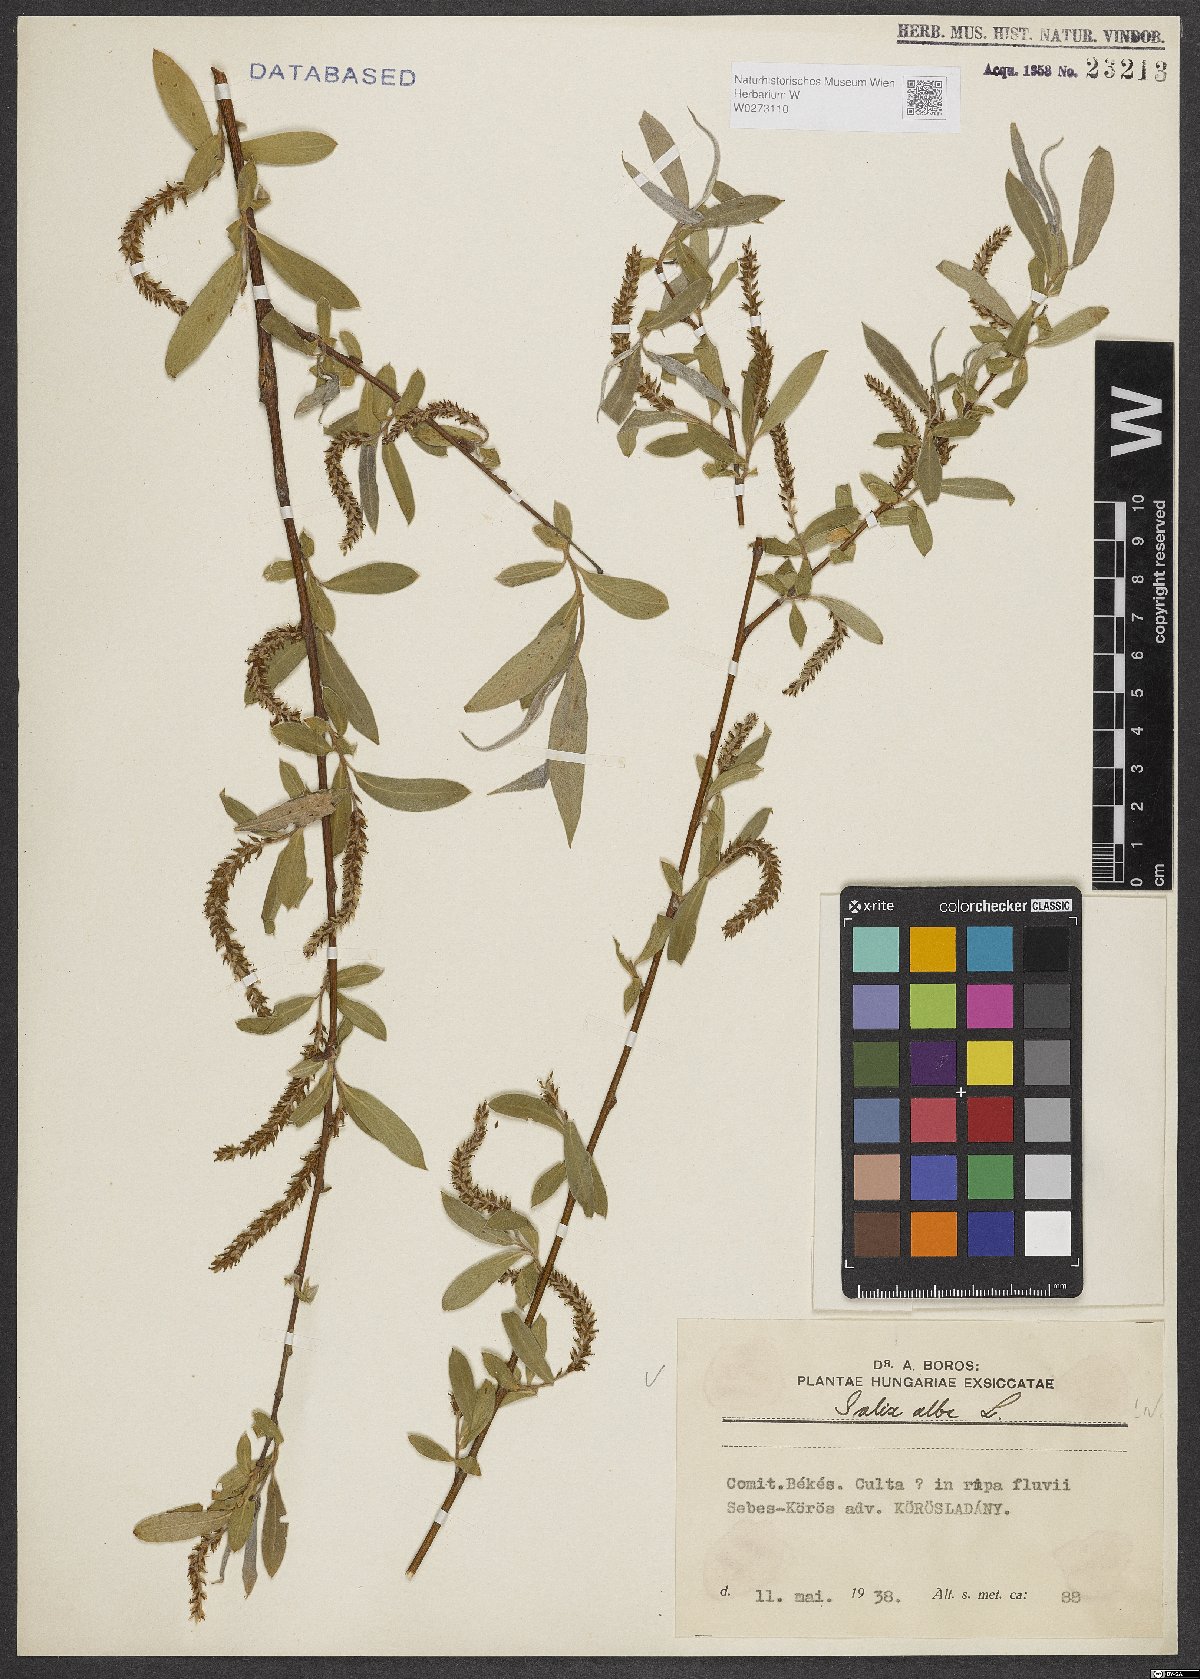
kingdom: Plantae
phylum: Tracheophyta
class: Magnoliopsida
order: Malpighiales
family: Salicaceae
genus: Salix
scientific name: Salix alba
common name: White willow
